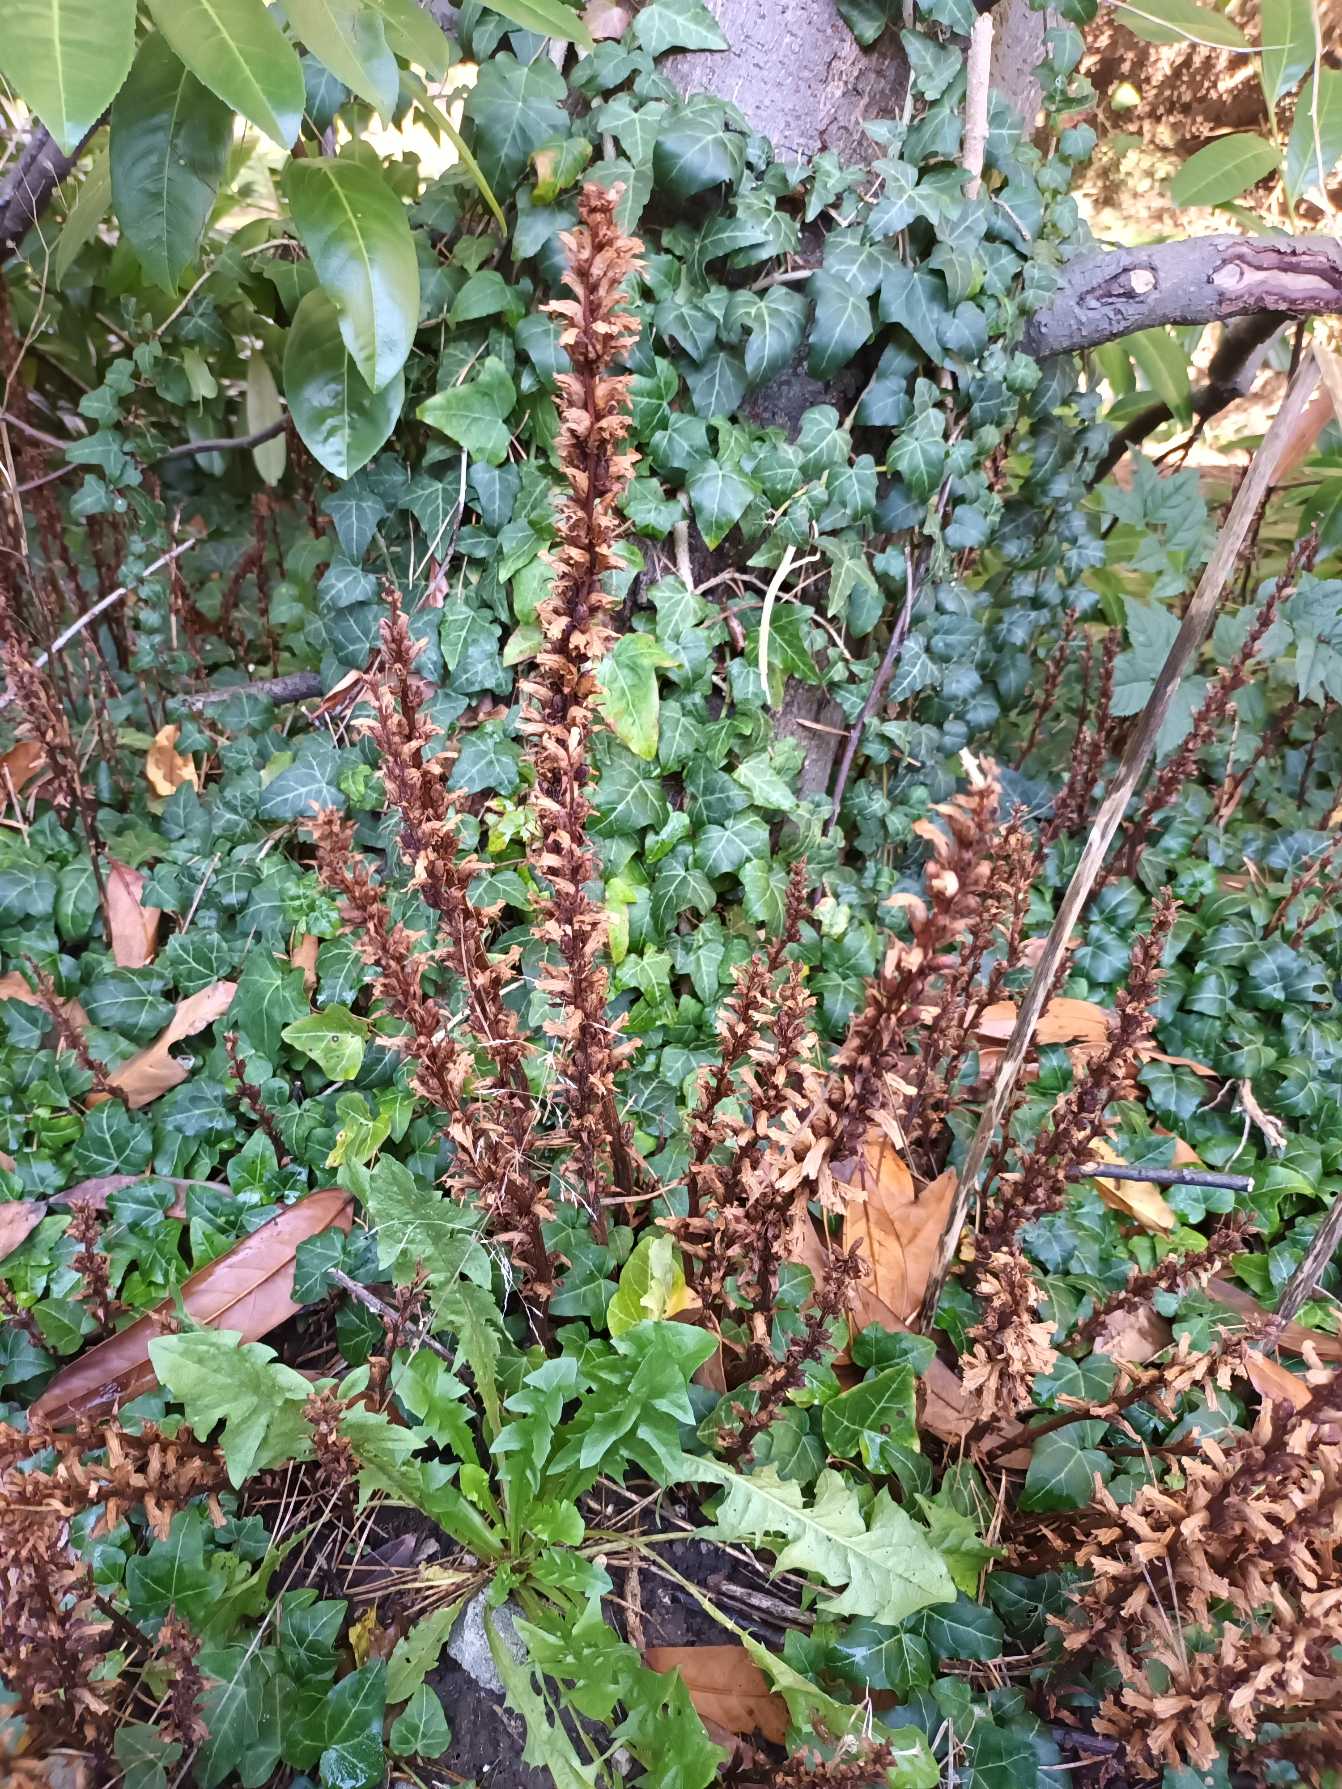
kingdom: Plantae
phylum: Tracheophyta
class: Magnoliopsida
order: Lamiales
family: Orobanchaceae
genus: Orobanche
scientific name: Orobanche hederae
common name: Vedbend-gyvelkvæler
